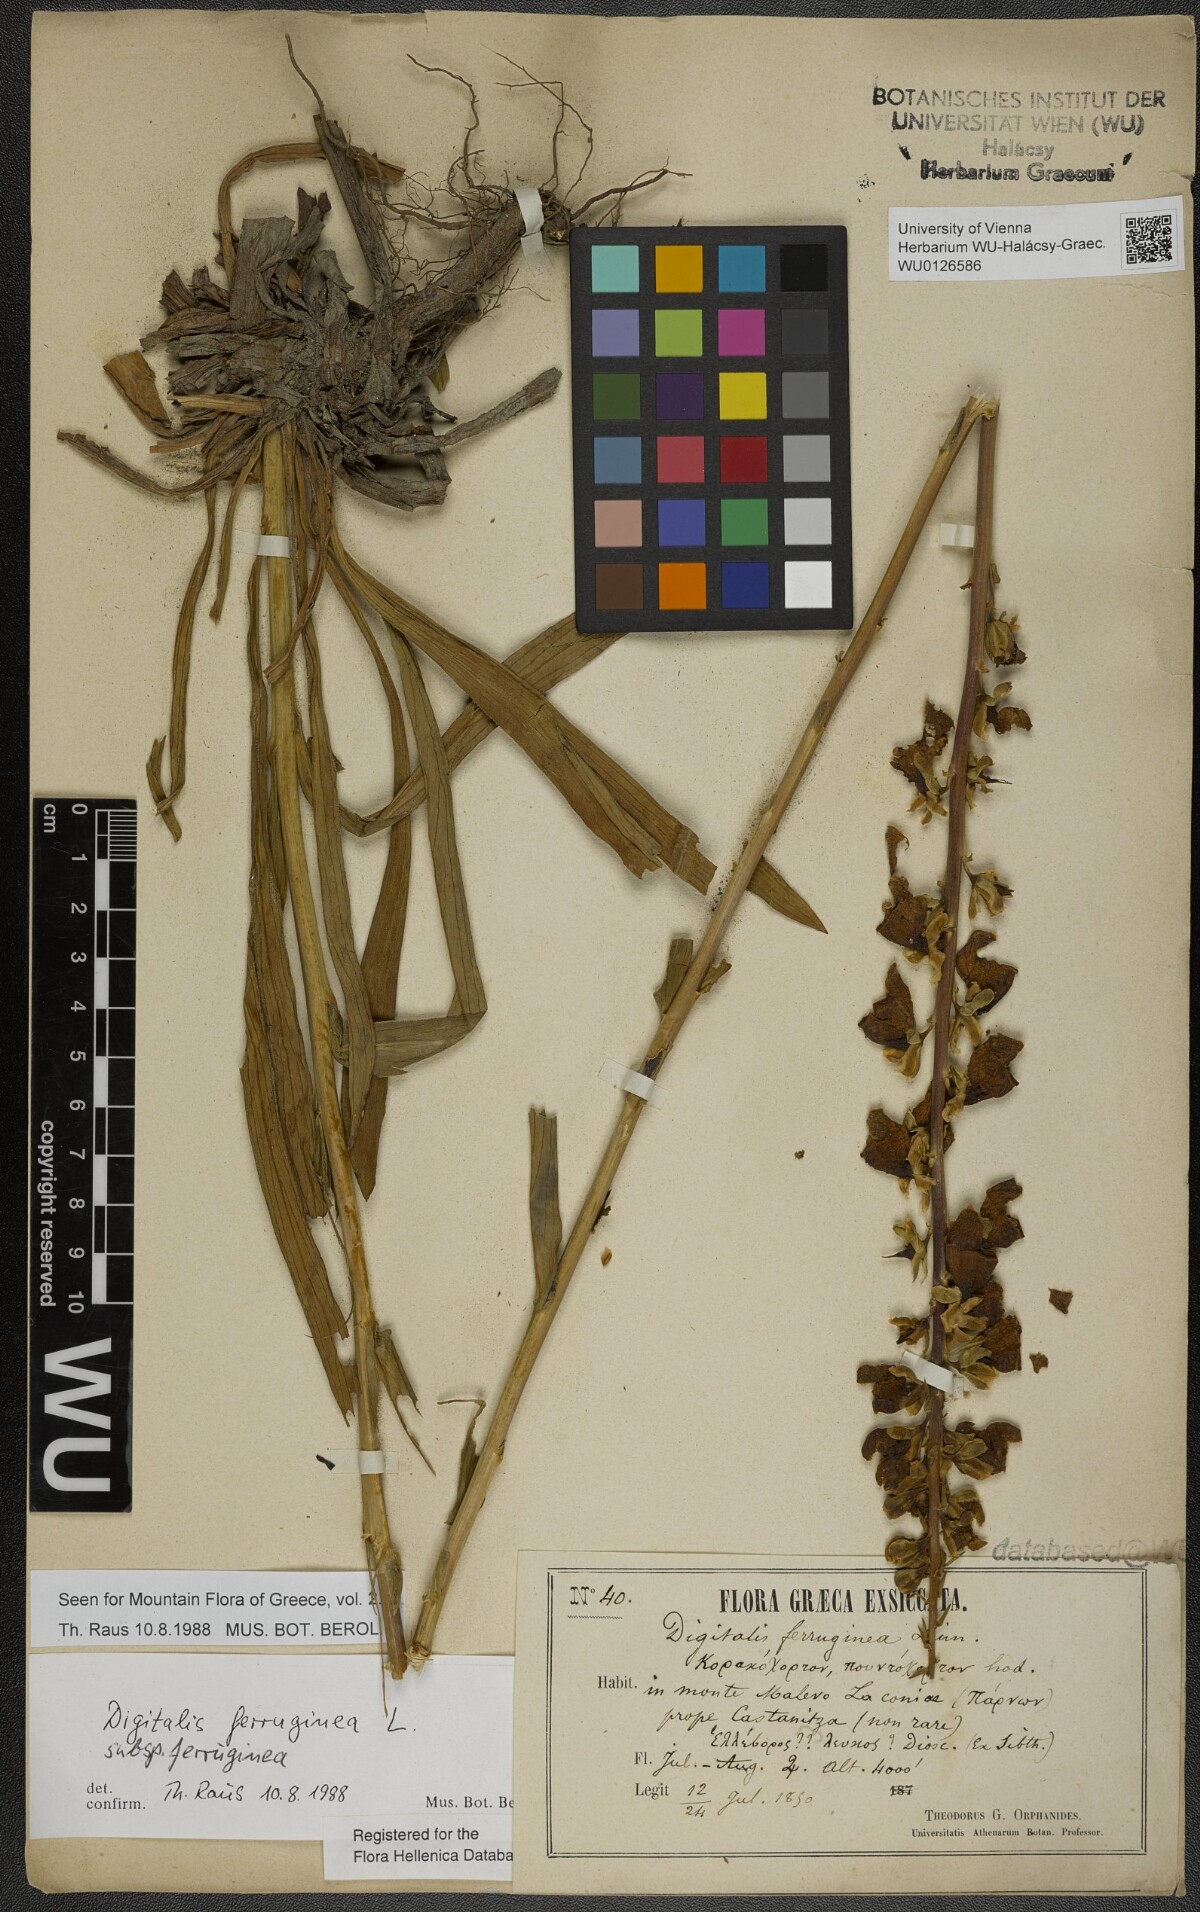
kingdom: Plantae
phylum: Tracheophyta
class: Magnoliopsida
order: Lamiales
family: Plantaginaceae
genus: Digitalis
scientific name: Digitalis ferruginea
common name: Rusty foxglove
